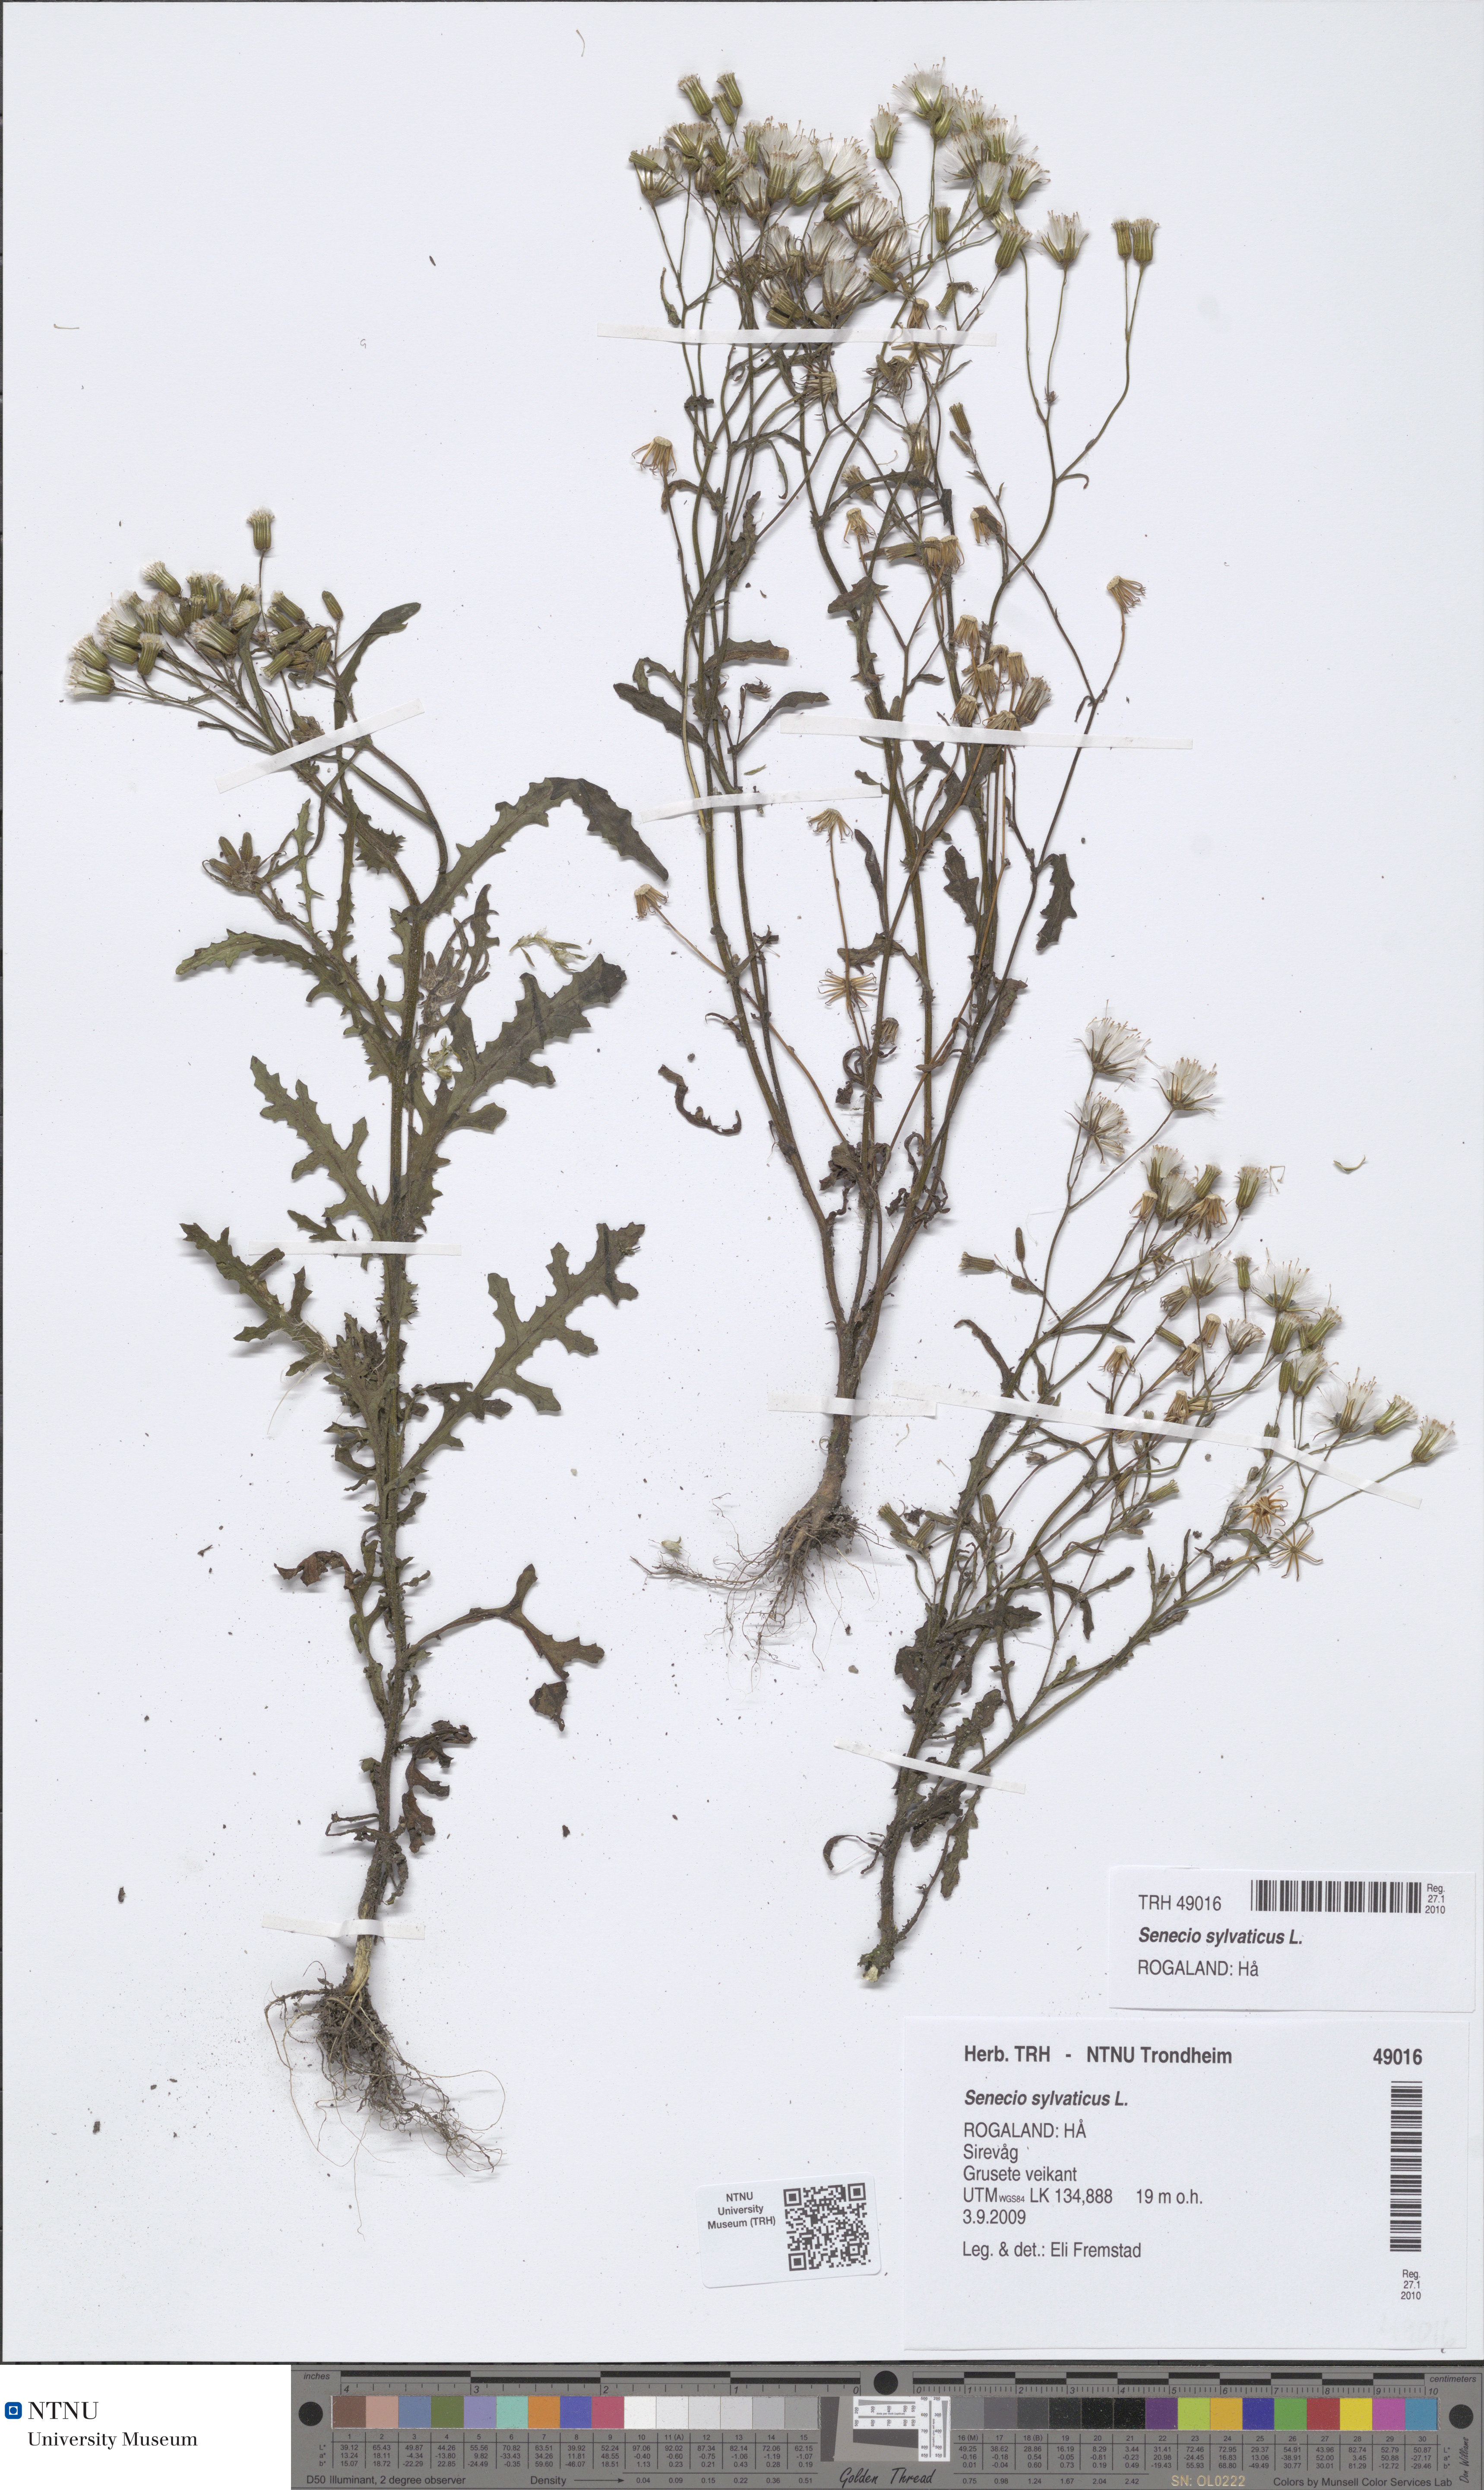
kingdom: Plantae
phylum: Tracheophyta
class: Magnoliopsida
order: Asterales
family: Asteraceae
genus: Senecio
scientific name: Senecio sylvaticus
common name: Woodland ragwort
